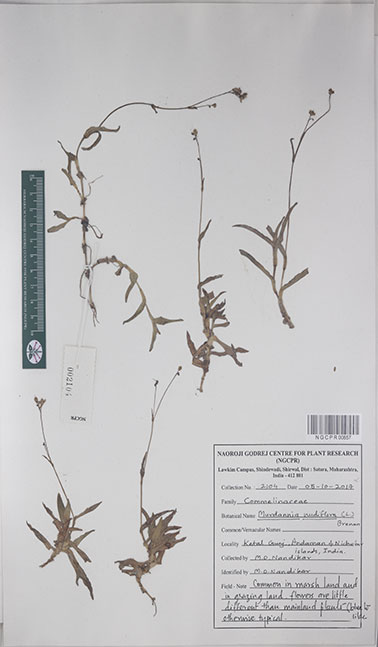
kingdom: Plantae
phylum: Tracheophyta
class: Liliopsida
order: Commelinales
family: Commelinaceae
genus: Murdannia
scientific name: Murdannia nudiflora
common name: Nakedstem dewflower
